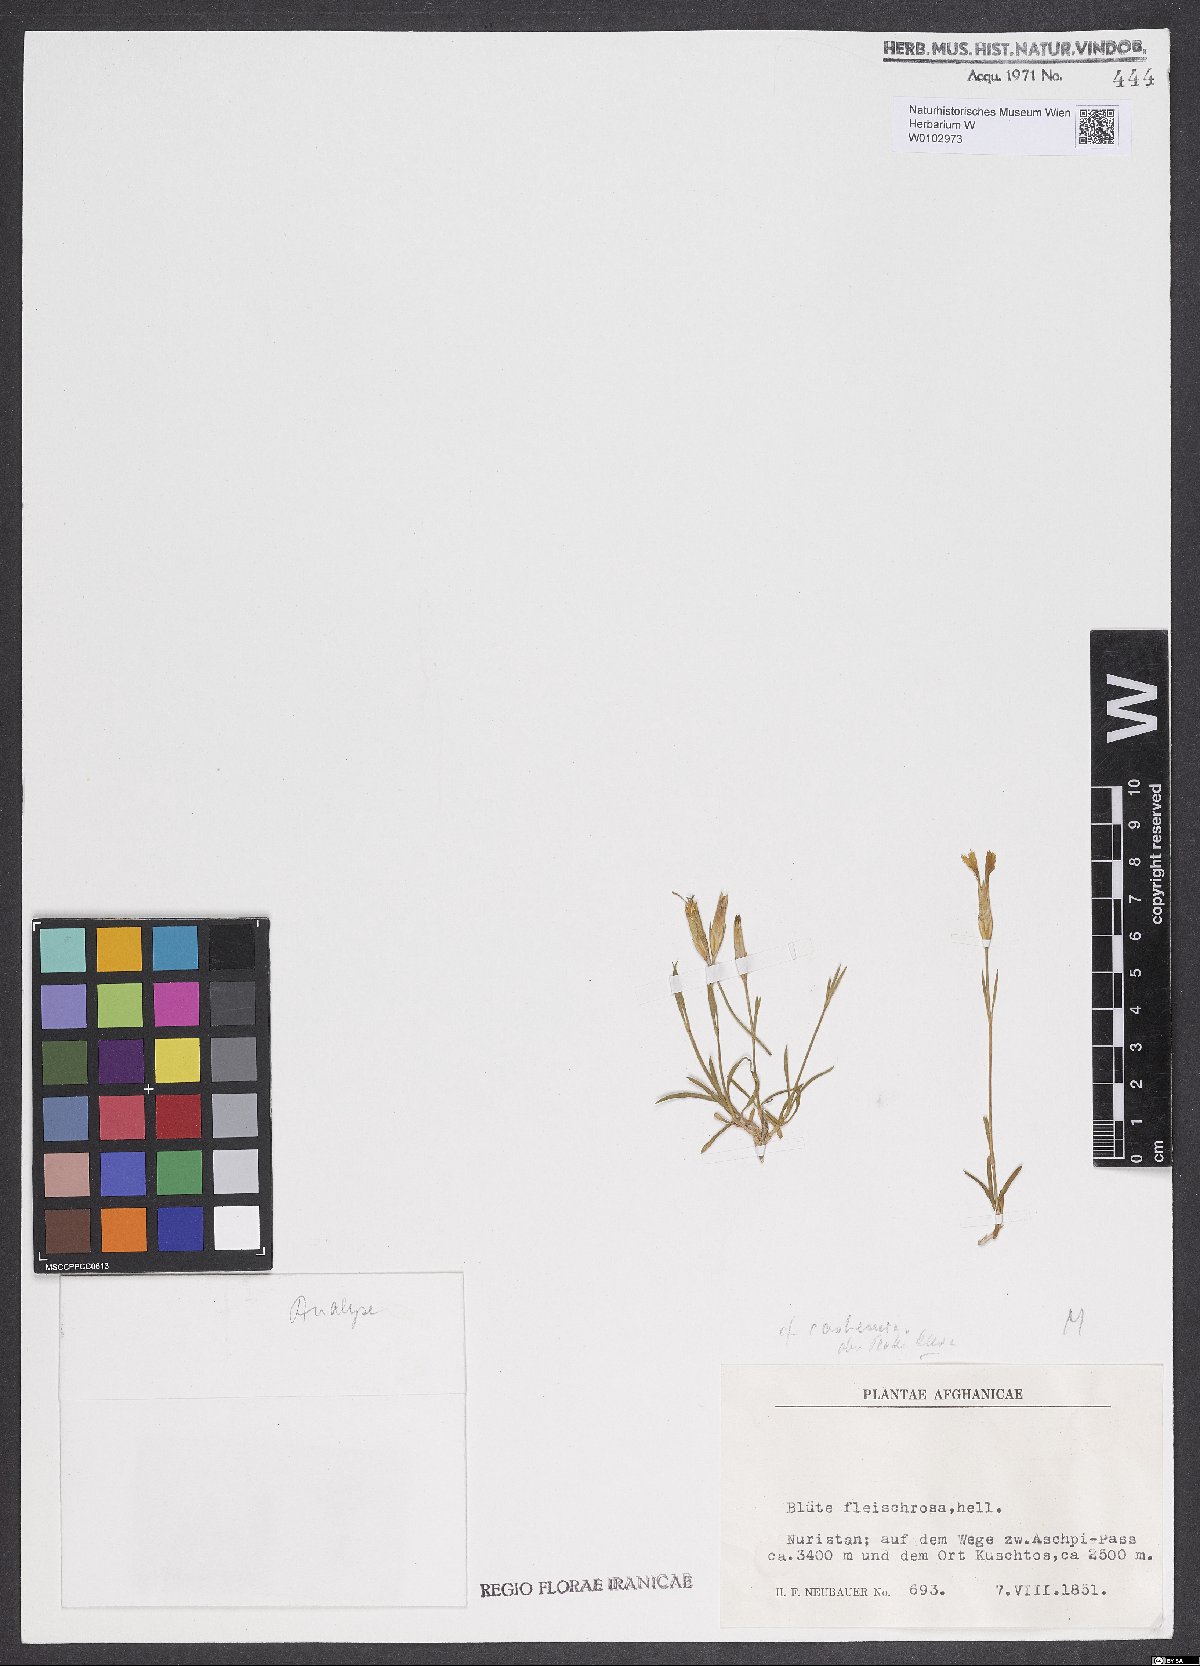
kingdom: Plantae
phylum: Tracheophyta
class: Magnoliopsida
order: Caryophyllales
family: Caryophyllaceae
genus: Dianthus
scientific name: Dianthus afghanicus
